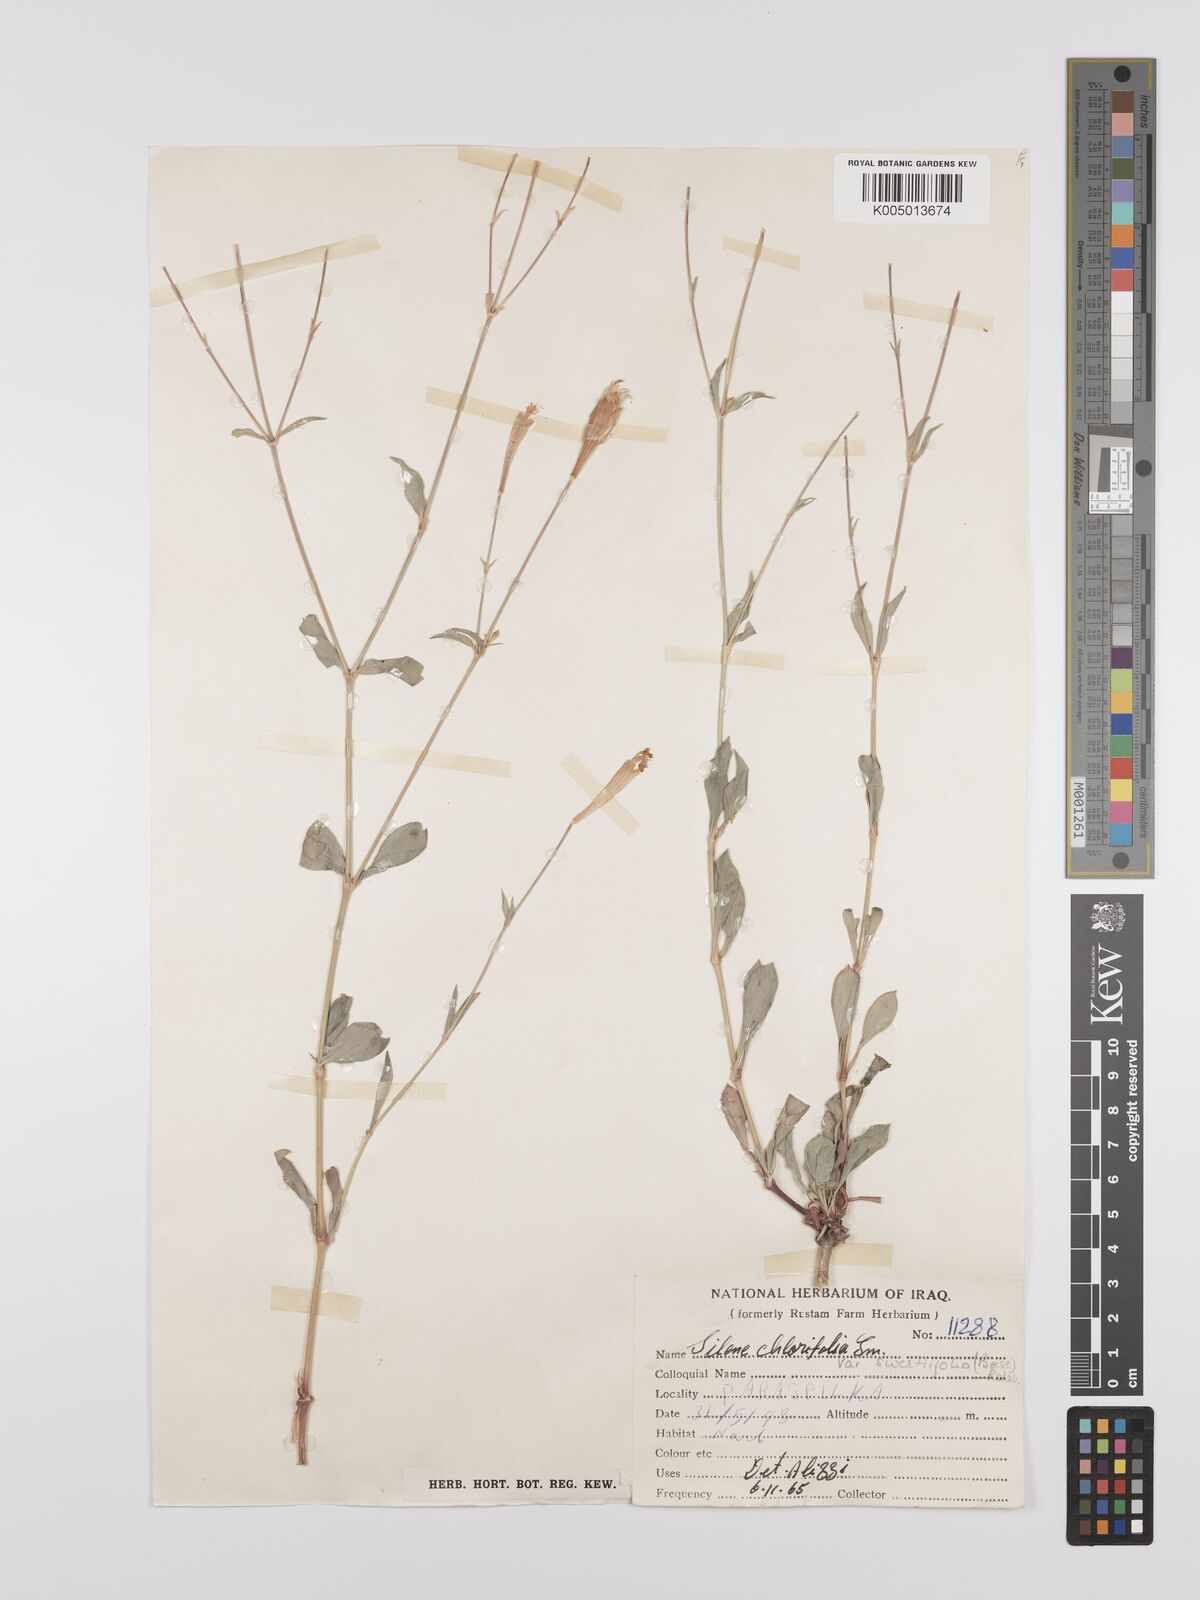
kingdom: Plantae
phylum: Tracheophyta
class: Magnoliopsida
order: Caryophyllales
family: Caryophyllaceae
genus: Silene
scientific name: Silene chlorifolia
